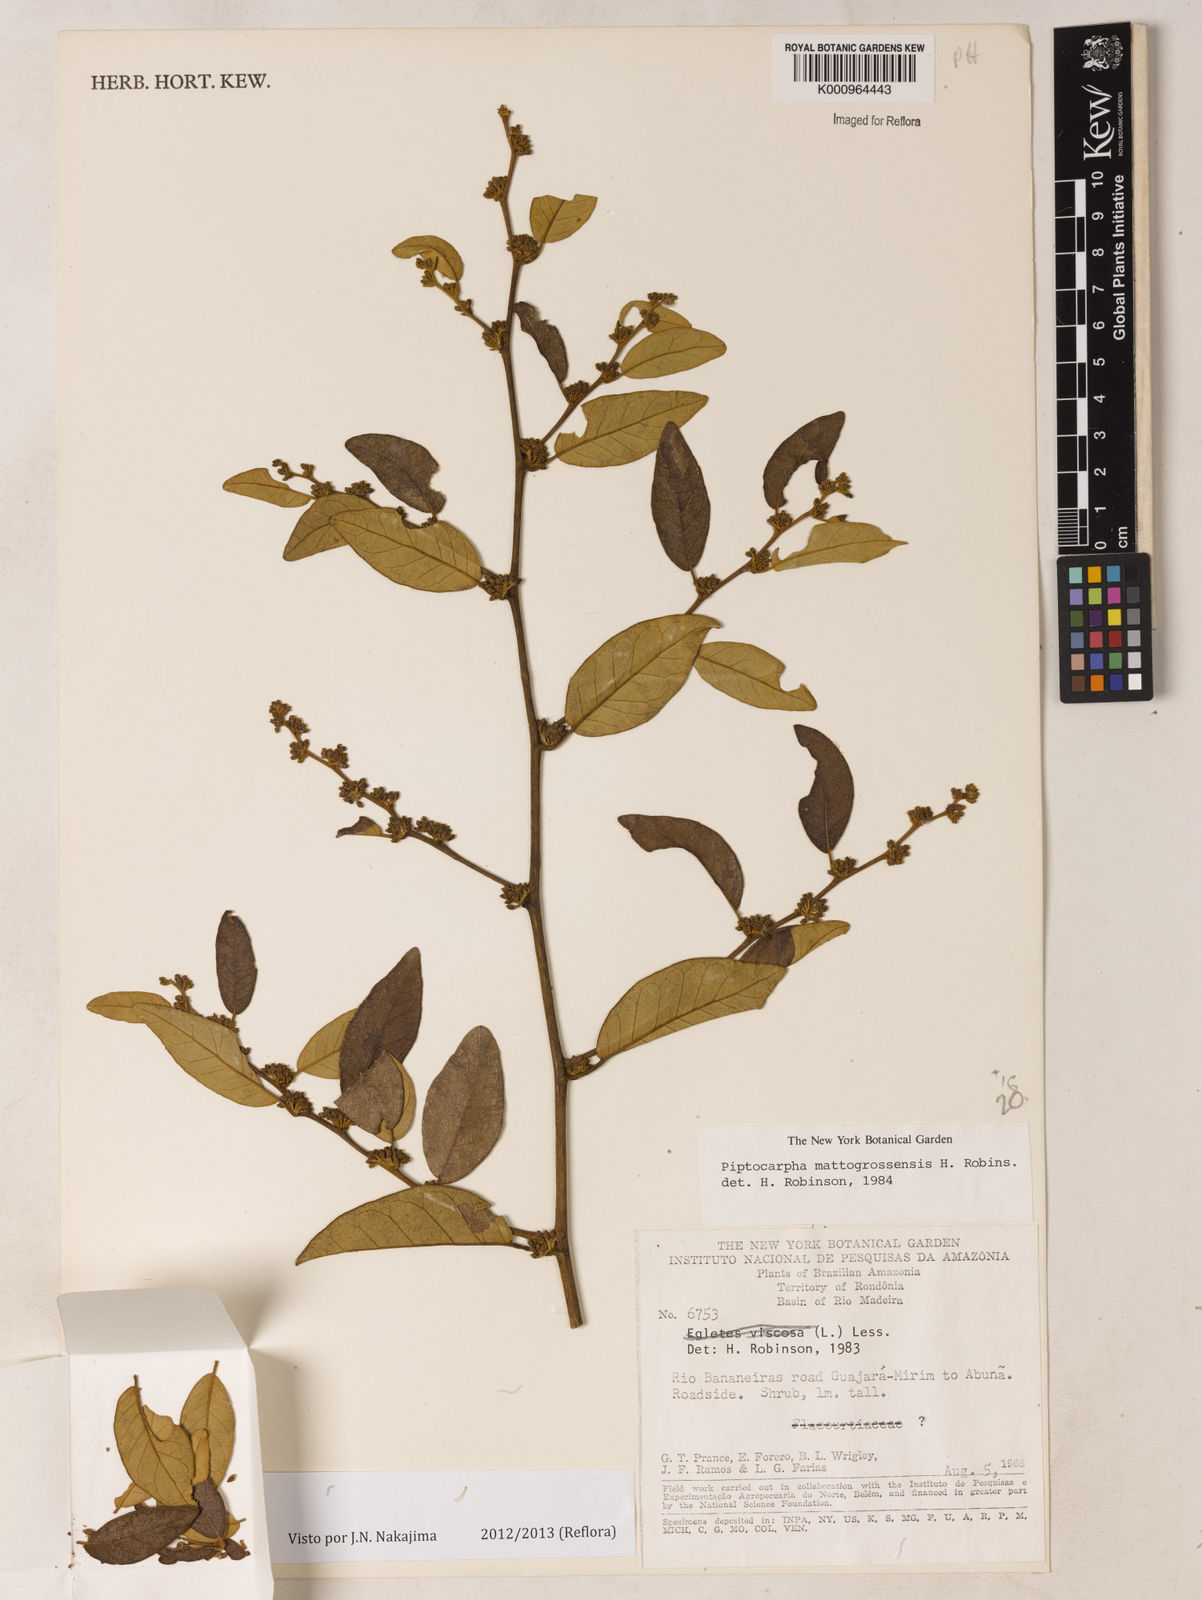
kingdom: Plantae
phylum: Tracheophyta
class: Magnoliopsida
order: Asterales
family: Asteraceae
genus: Piptocarpha
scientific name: Piptocarpha matogrossensis
